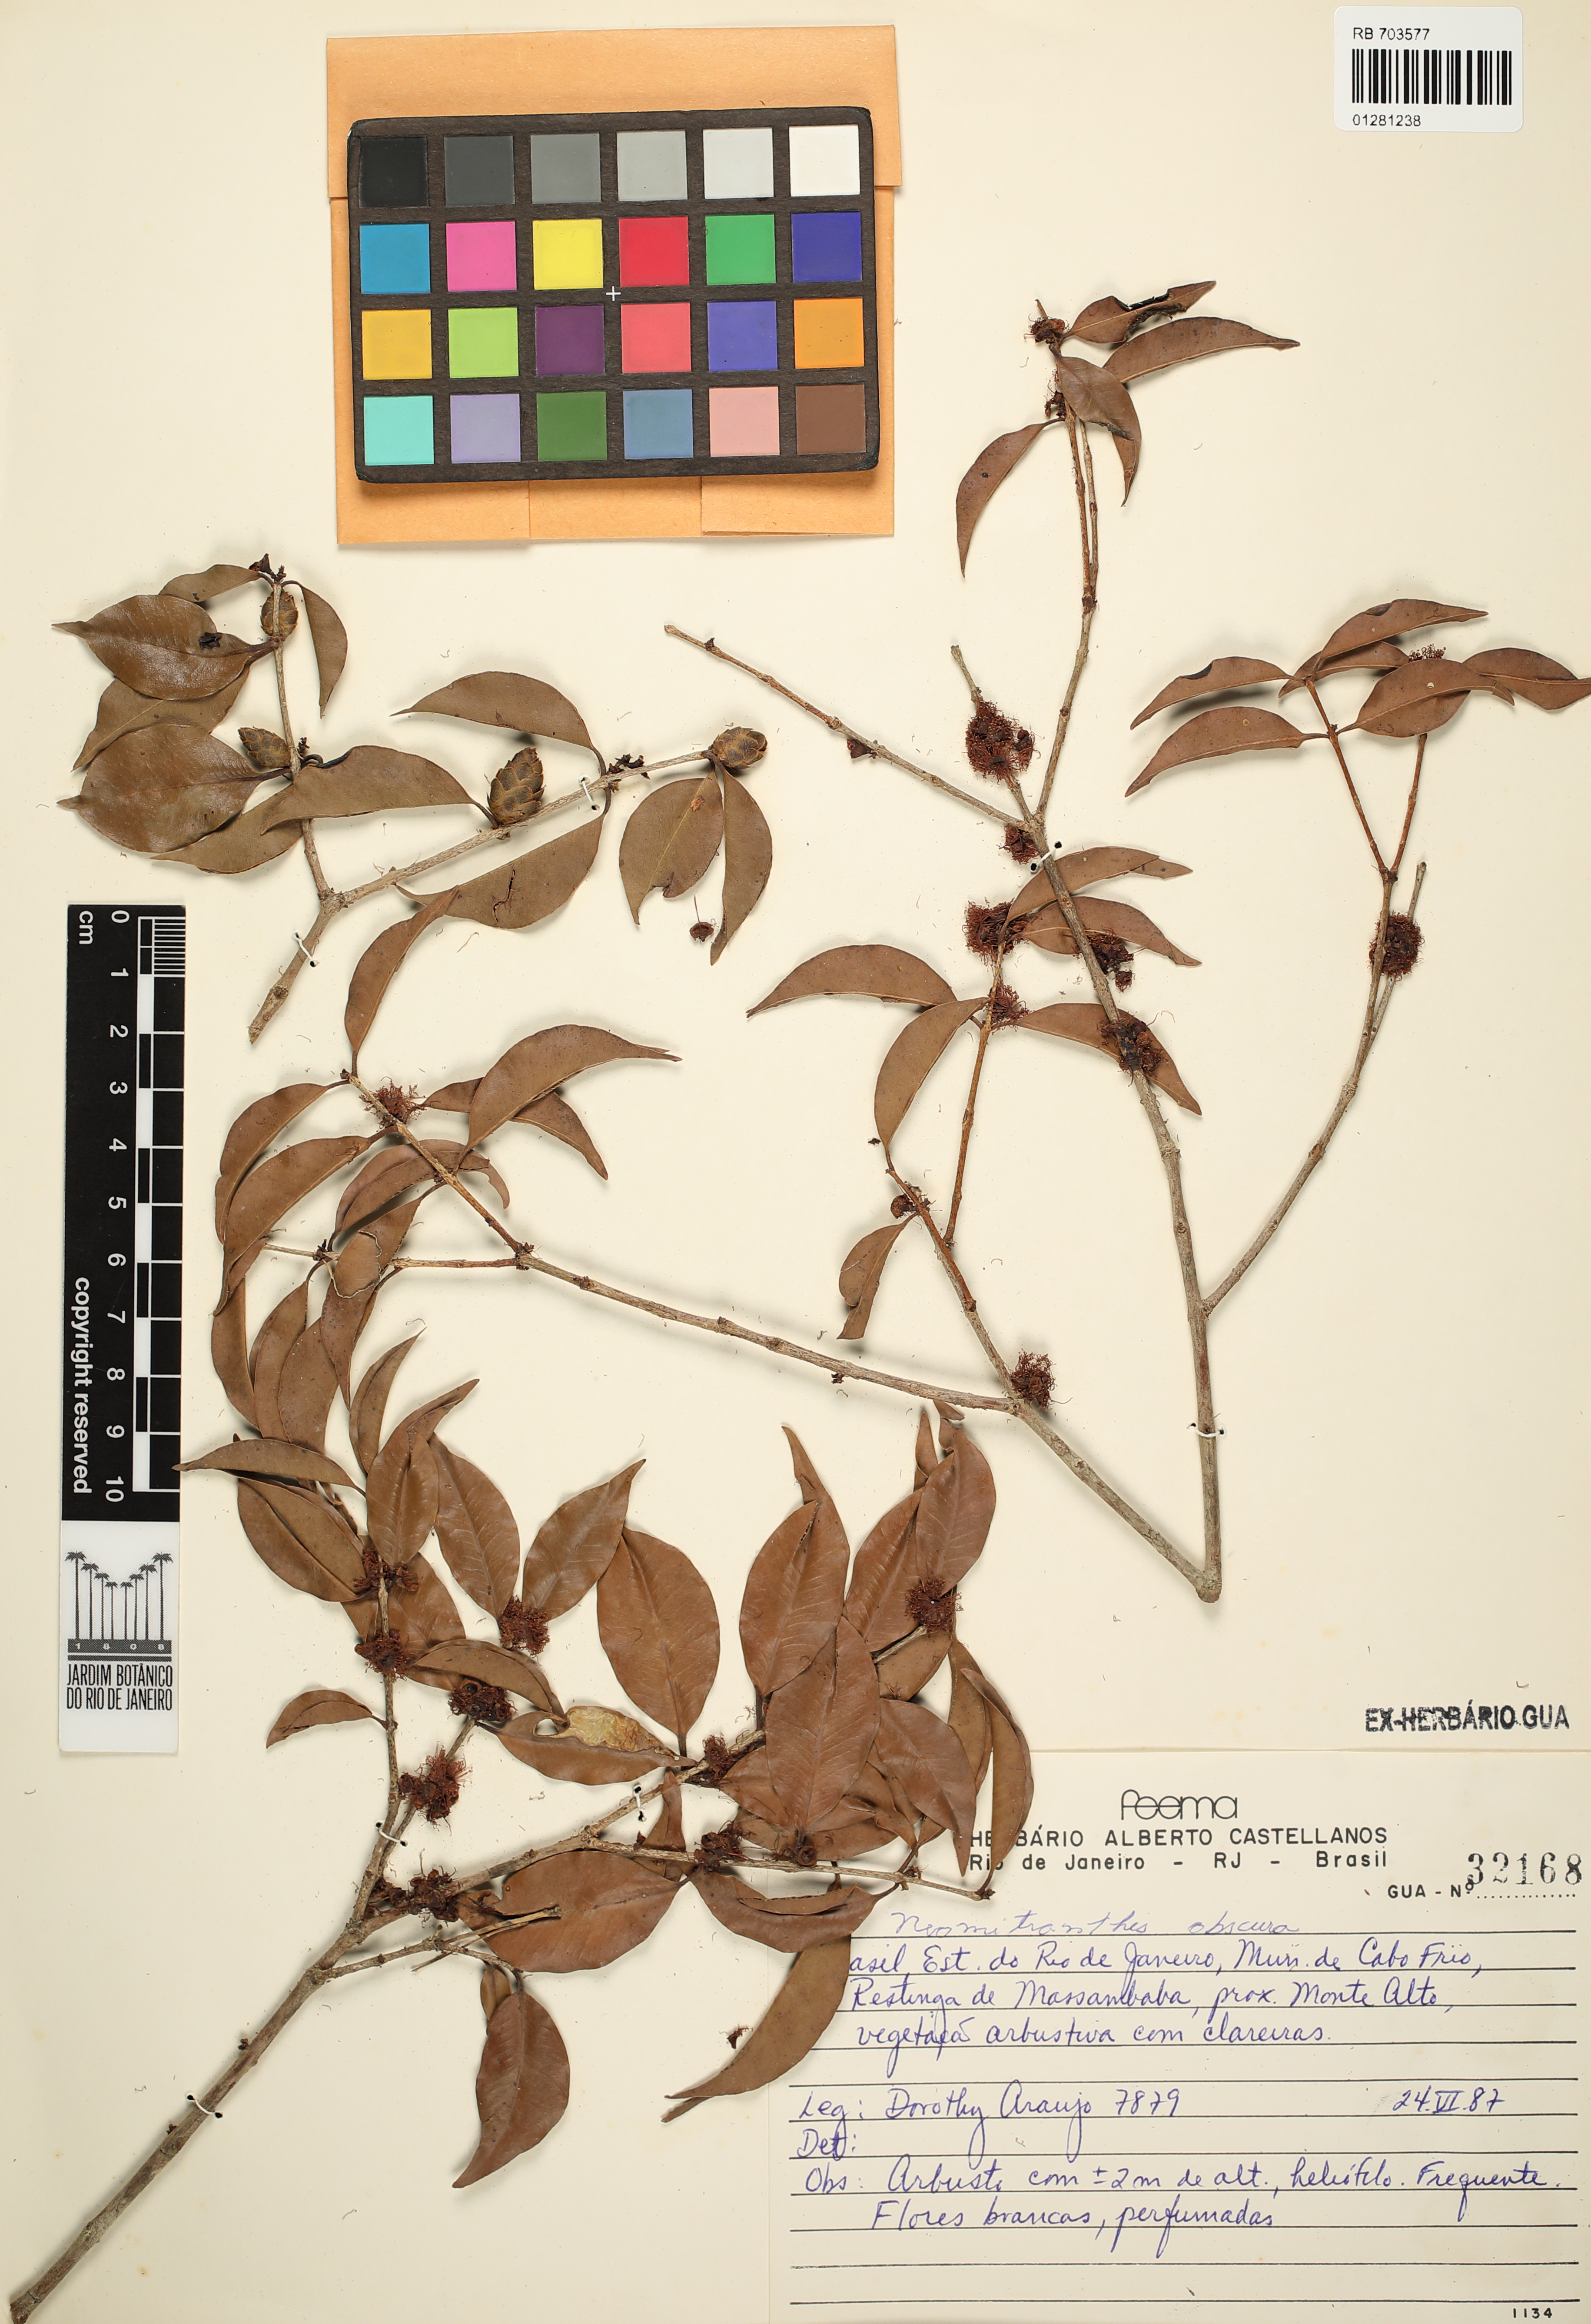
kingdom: Plantae
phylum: Tracheophyta
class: Magnoliopsida
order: Myrtales
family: Myrtaceae
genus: Neomitranthes
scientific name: Neomitranthes obscura
